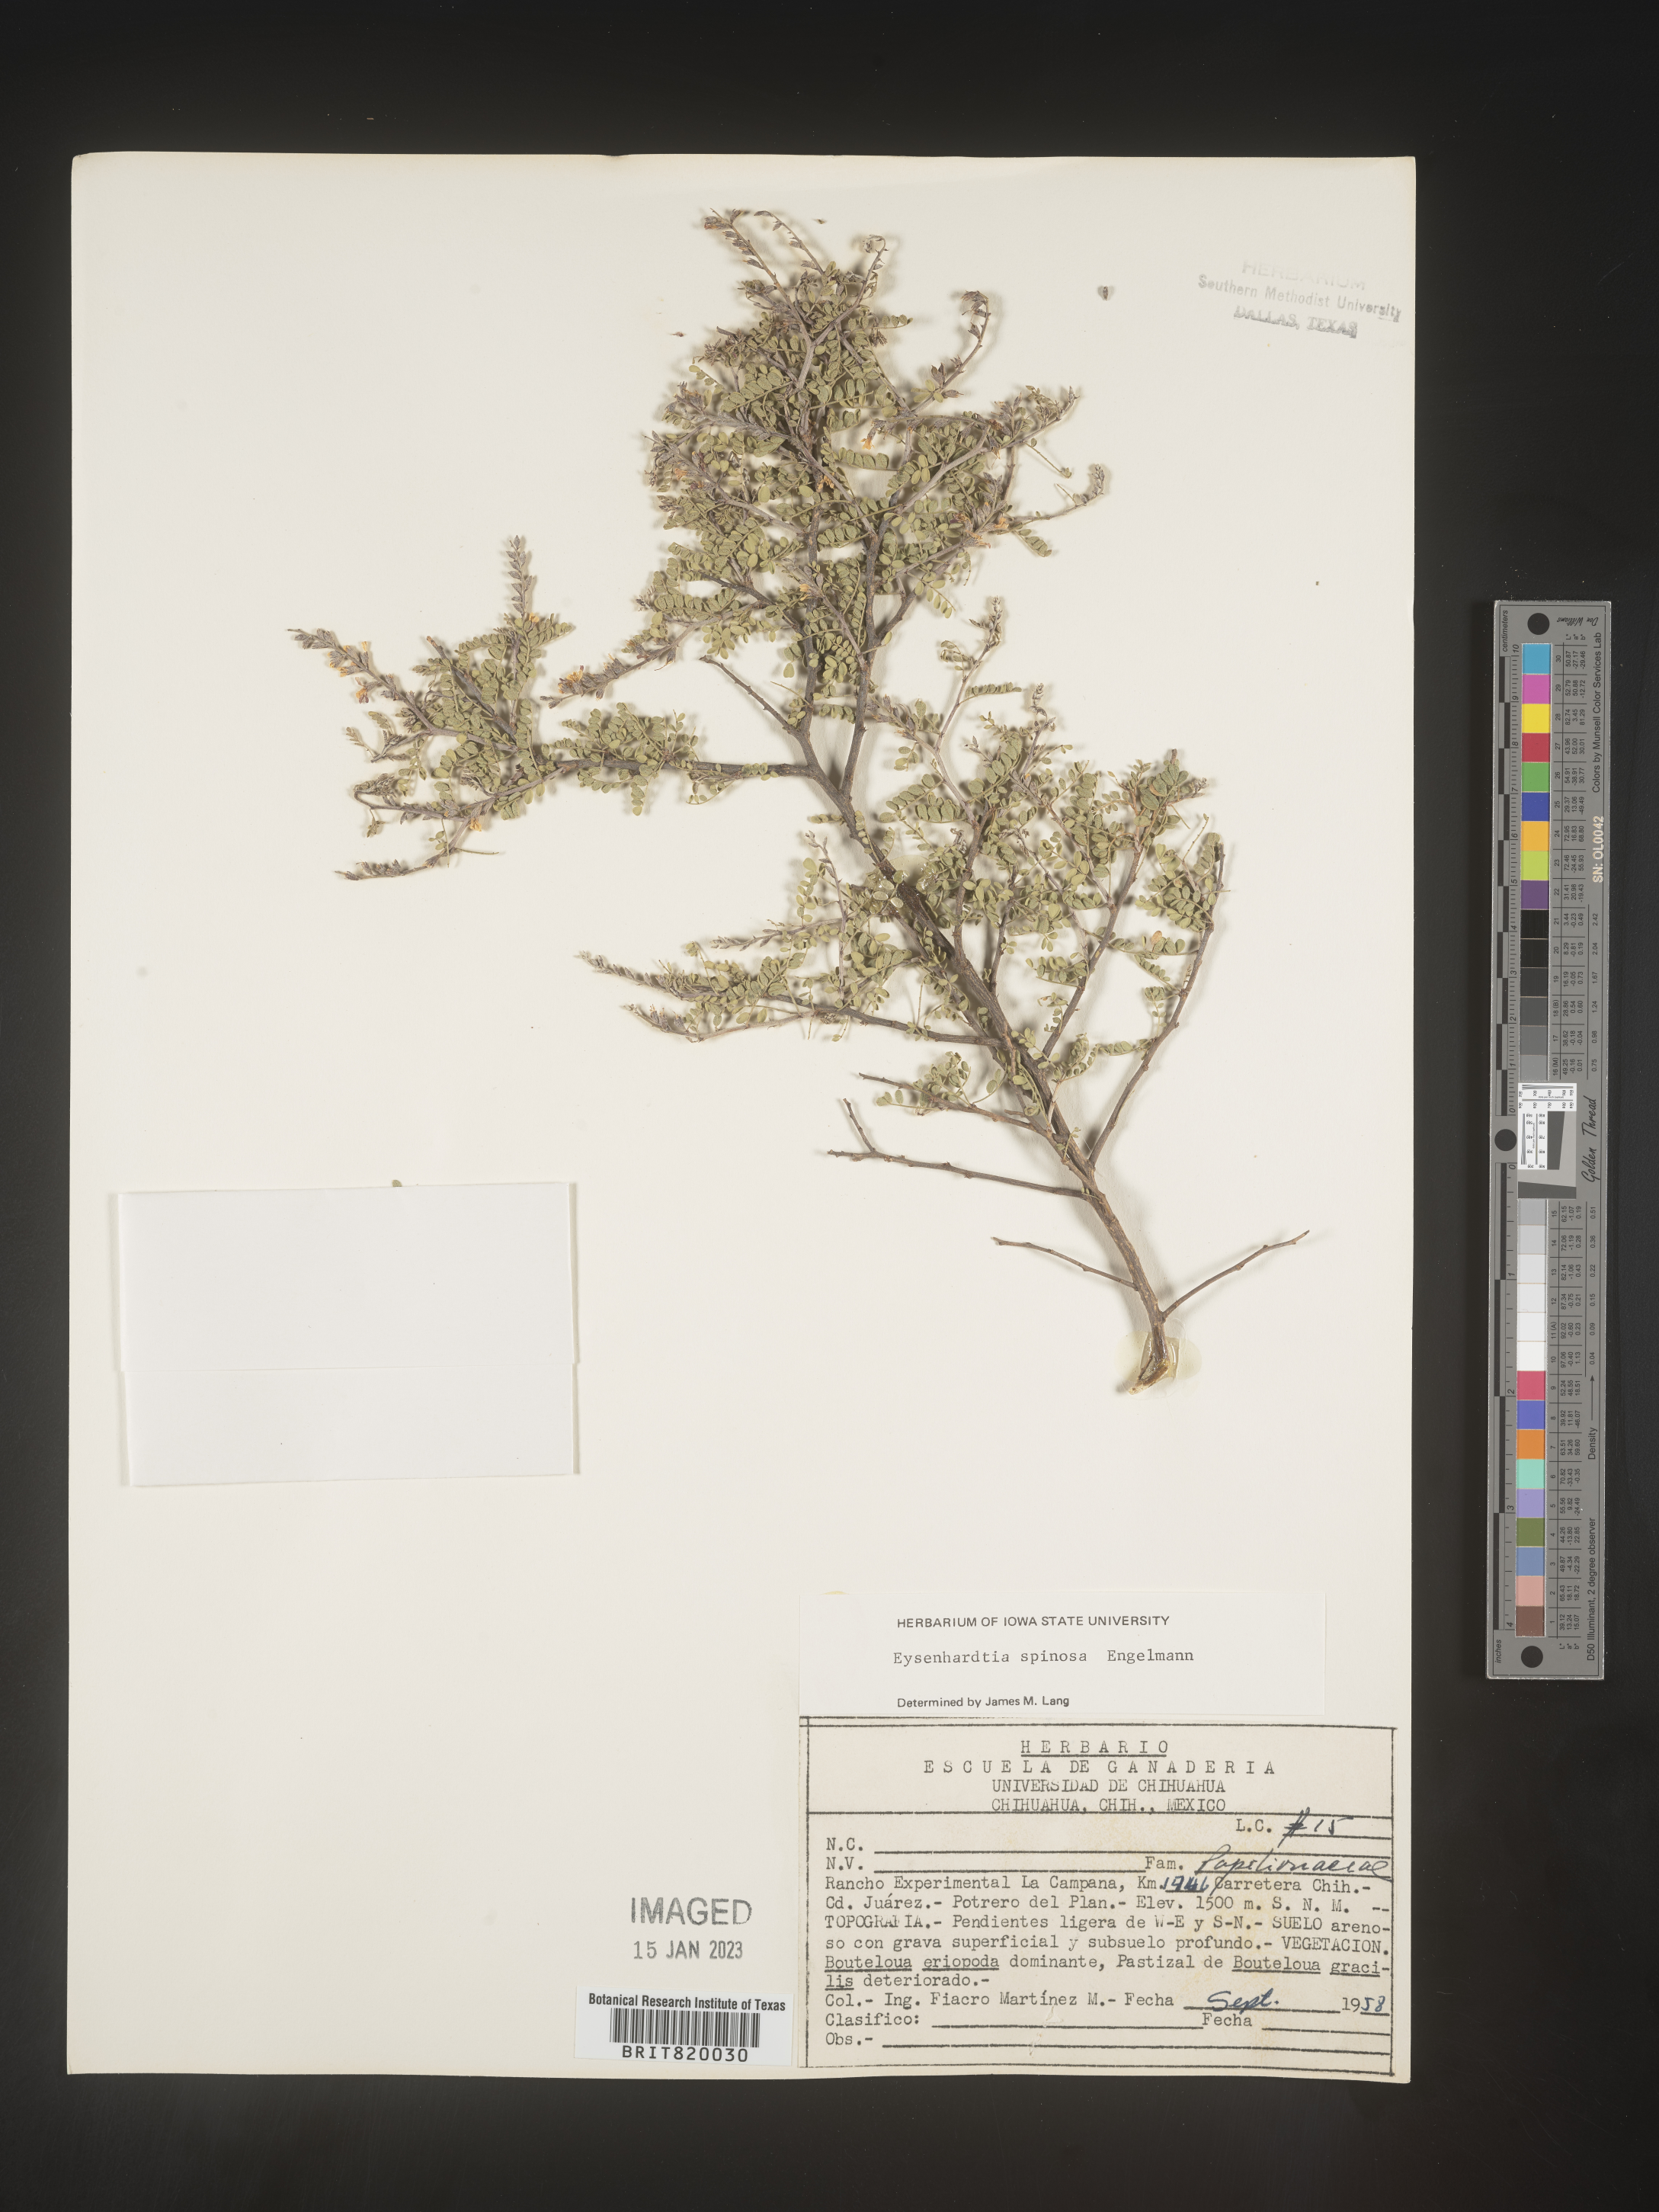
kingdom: Plantae
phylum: Tracheophyta
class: Magnoliopsida
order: Fabales
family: Fabaceae
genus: Eysenhardtia
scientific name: Eysenhardtia
